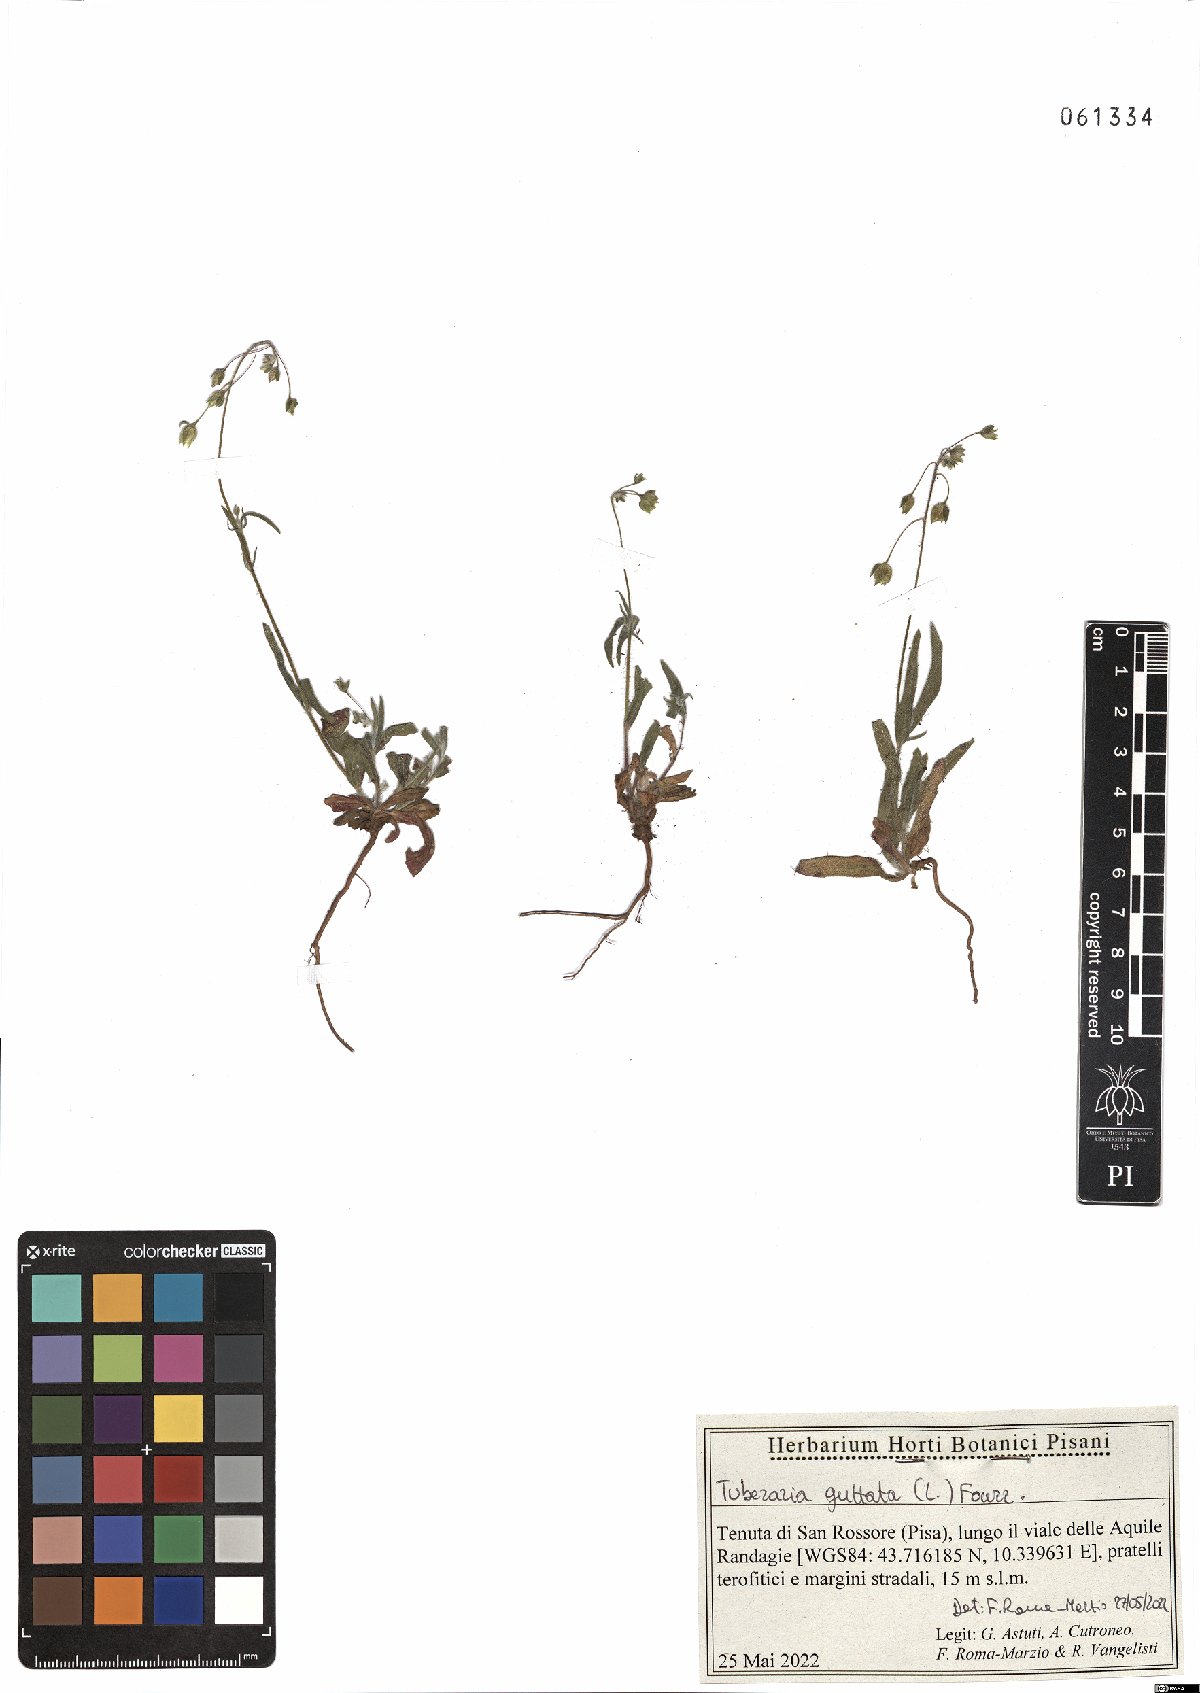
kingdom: Plantae
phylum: Tracheophyta
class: Magnoliopsida
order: Malvales
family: Cistaceae
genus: Tuberaria
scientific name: Tuberaria guttata
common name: Spotted rock-rose
